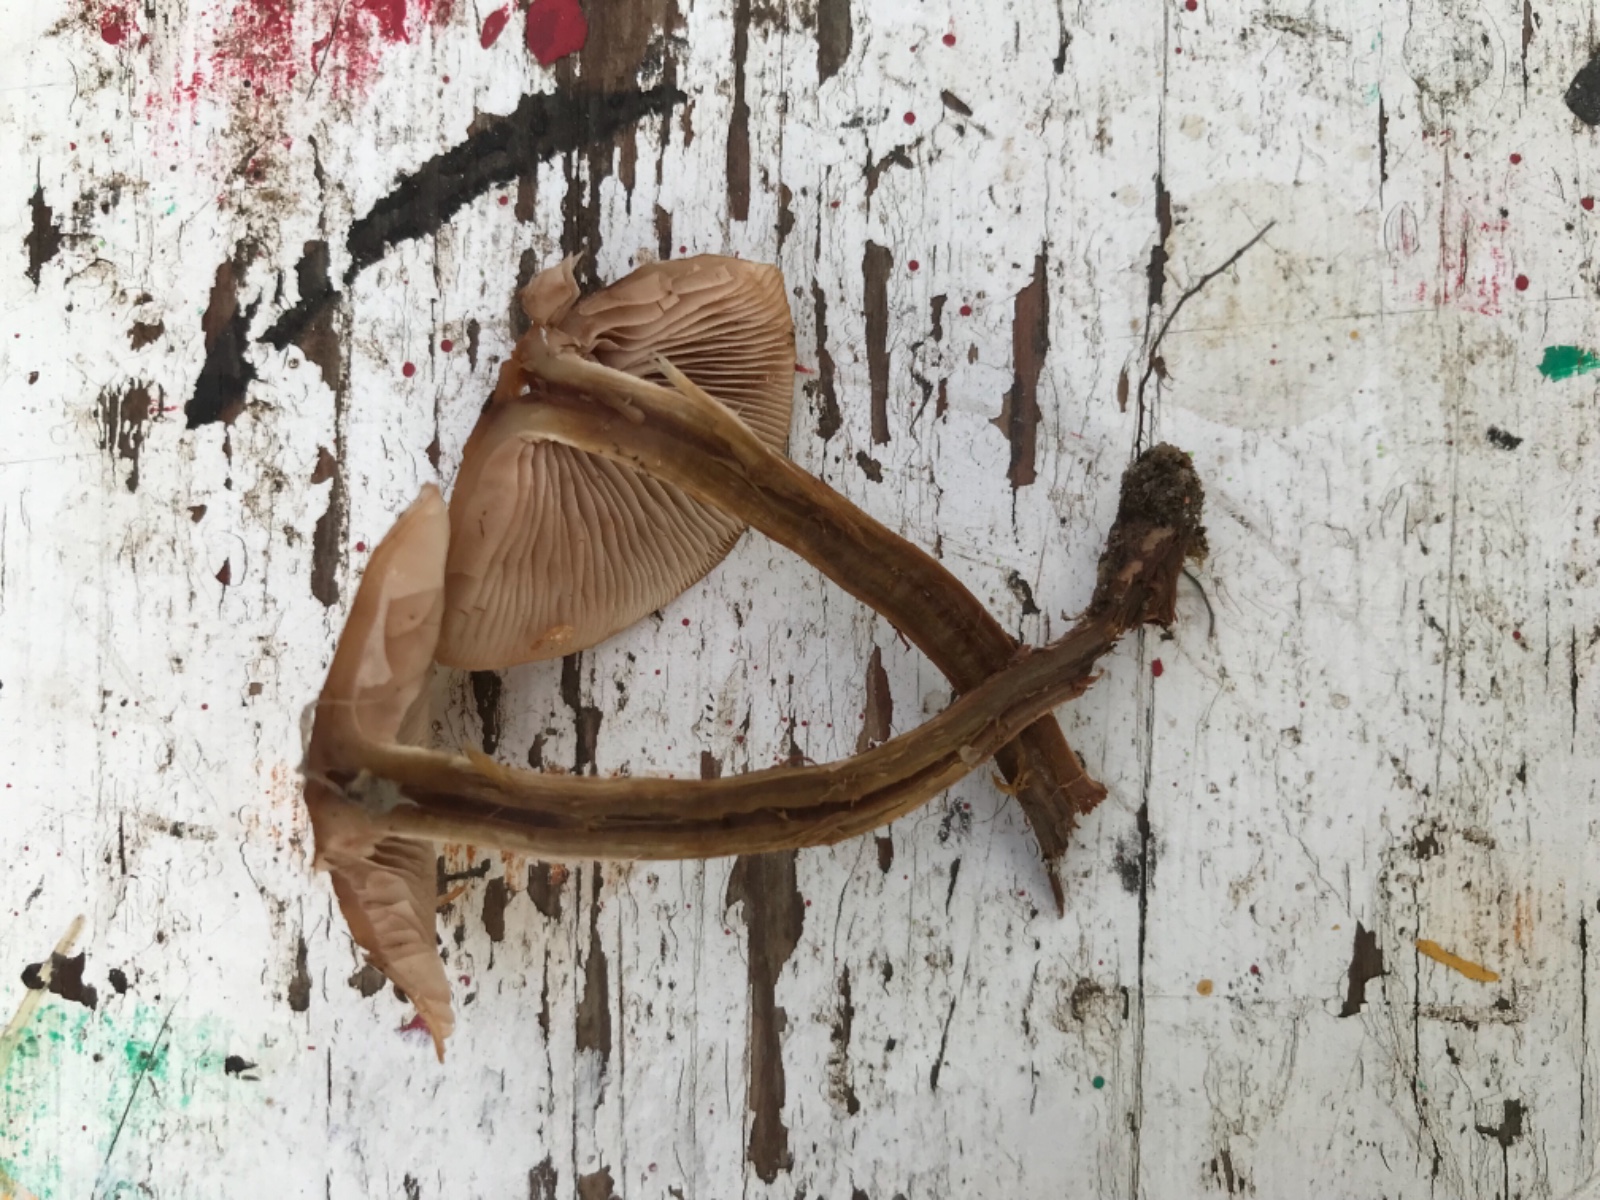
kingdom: Fungi
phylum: Basidiomycota
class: Agaricomycetes
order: Agaricales
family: Cortinariaceae
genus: Cortinarius
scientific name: Cortinarius
